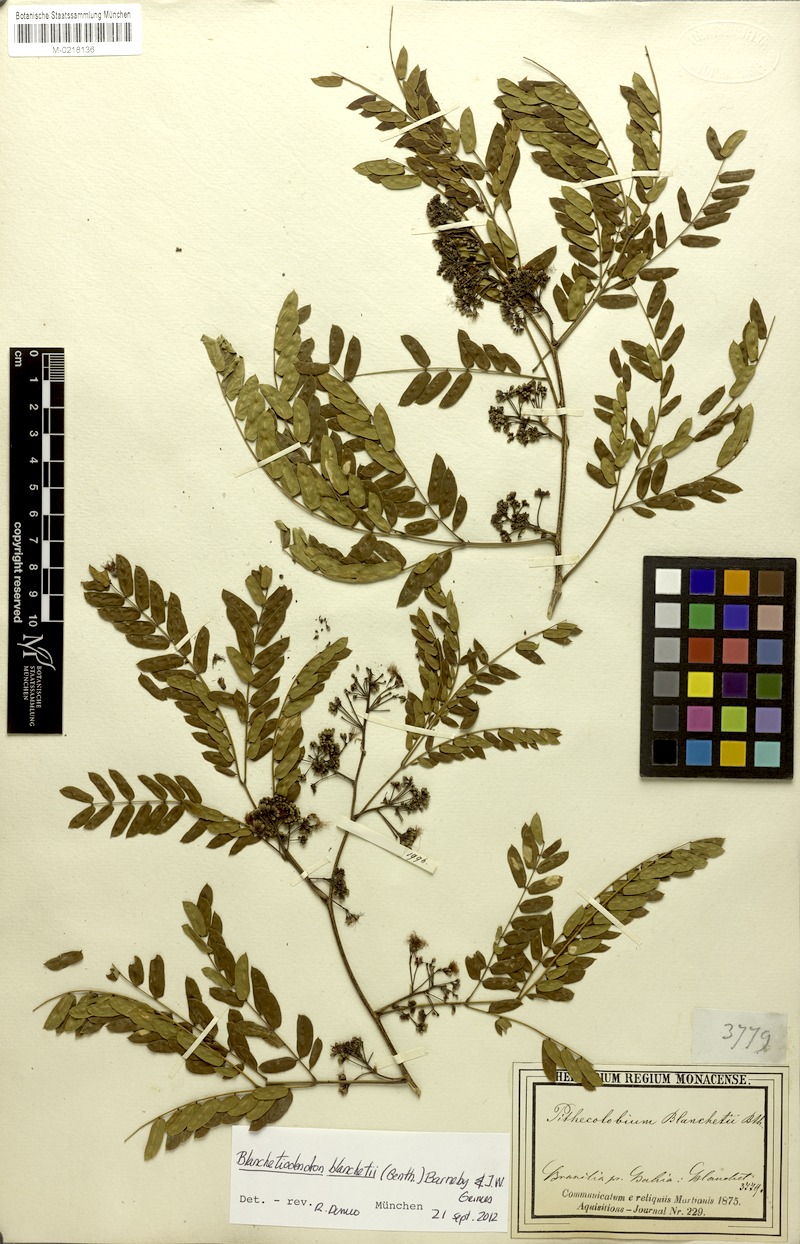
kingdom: Plantae
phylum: Tracheophyta
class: Magnoliopsida
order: Fabales
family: Fabaceae
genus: Blanchetiodendron
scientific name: Blanchetiodendron blanchetii
